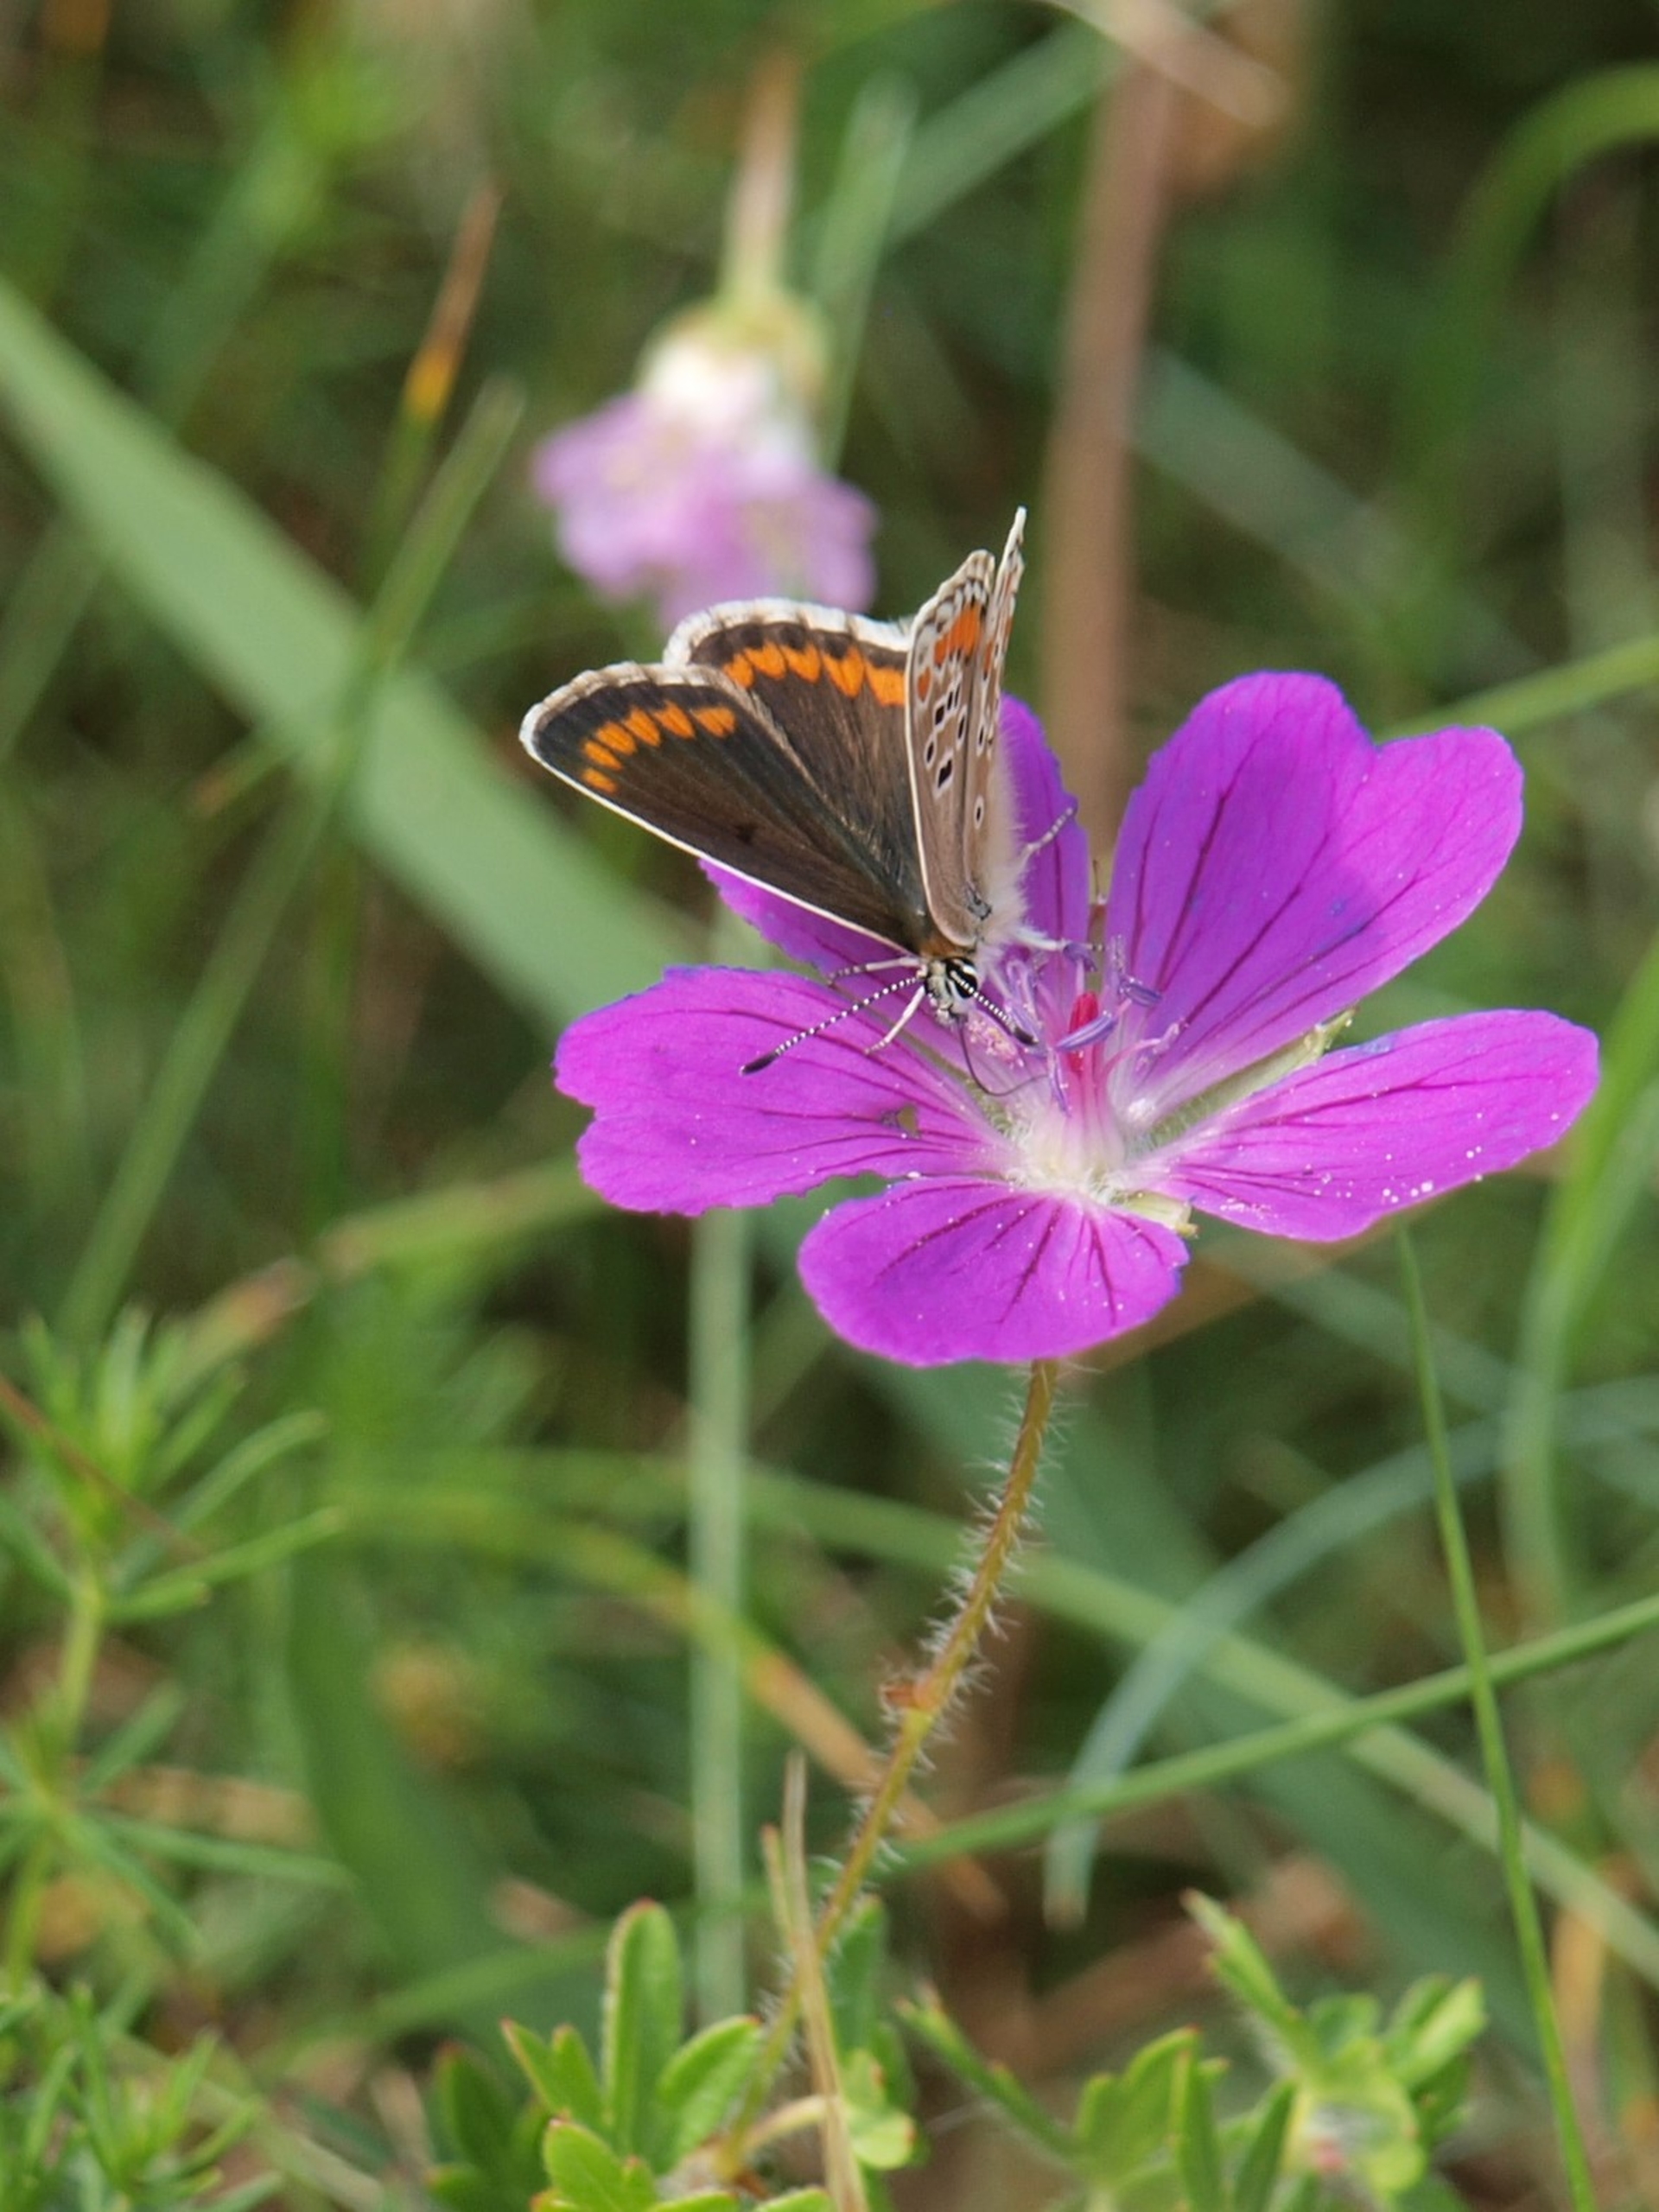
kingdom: Animalia
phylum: Arthropoda
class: Insecta
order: Lepidoptera
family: Lycaenidae
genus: Aricia
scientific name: Aricia agestis
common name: Rødplettet blåfugl
